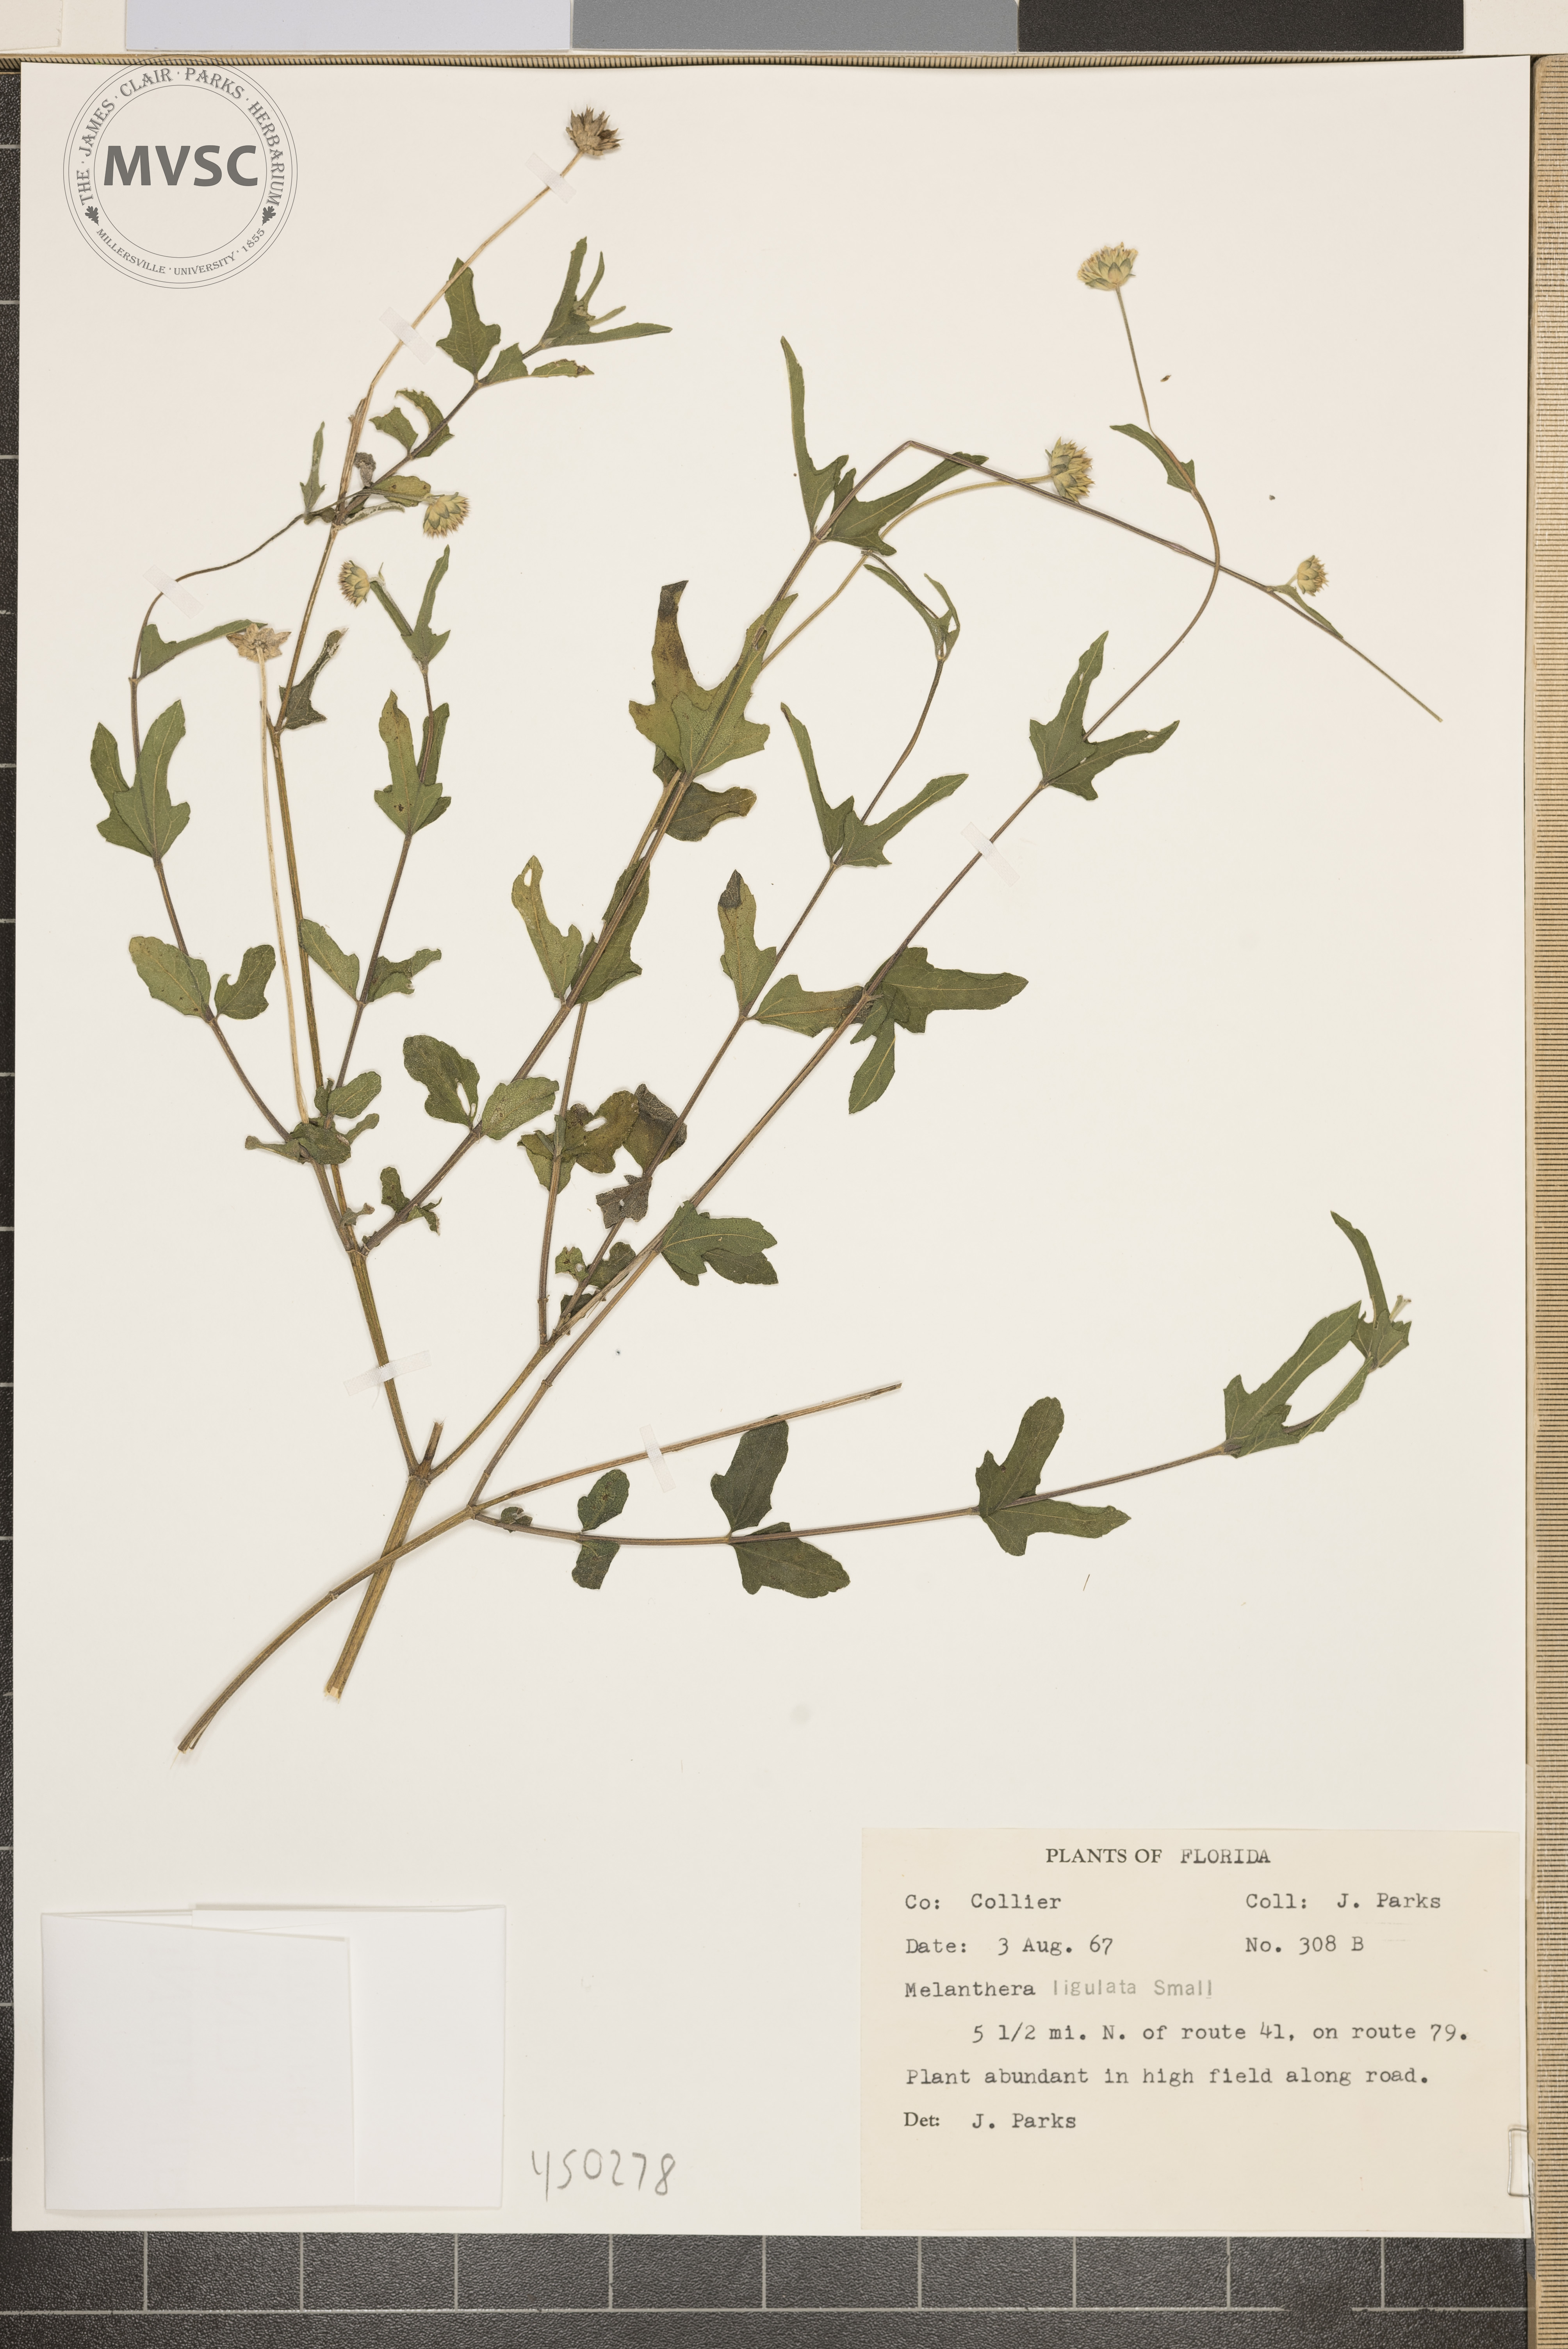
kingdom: Plantae
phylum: Tracheophyta
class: Magnoliopsida
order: Asterales
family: Asteraceae
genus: Melanthera
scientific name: Melanthera nivea
